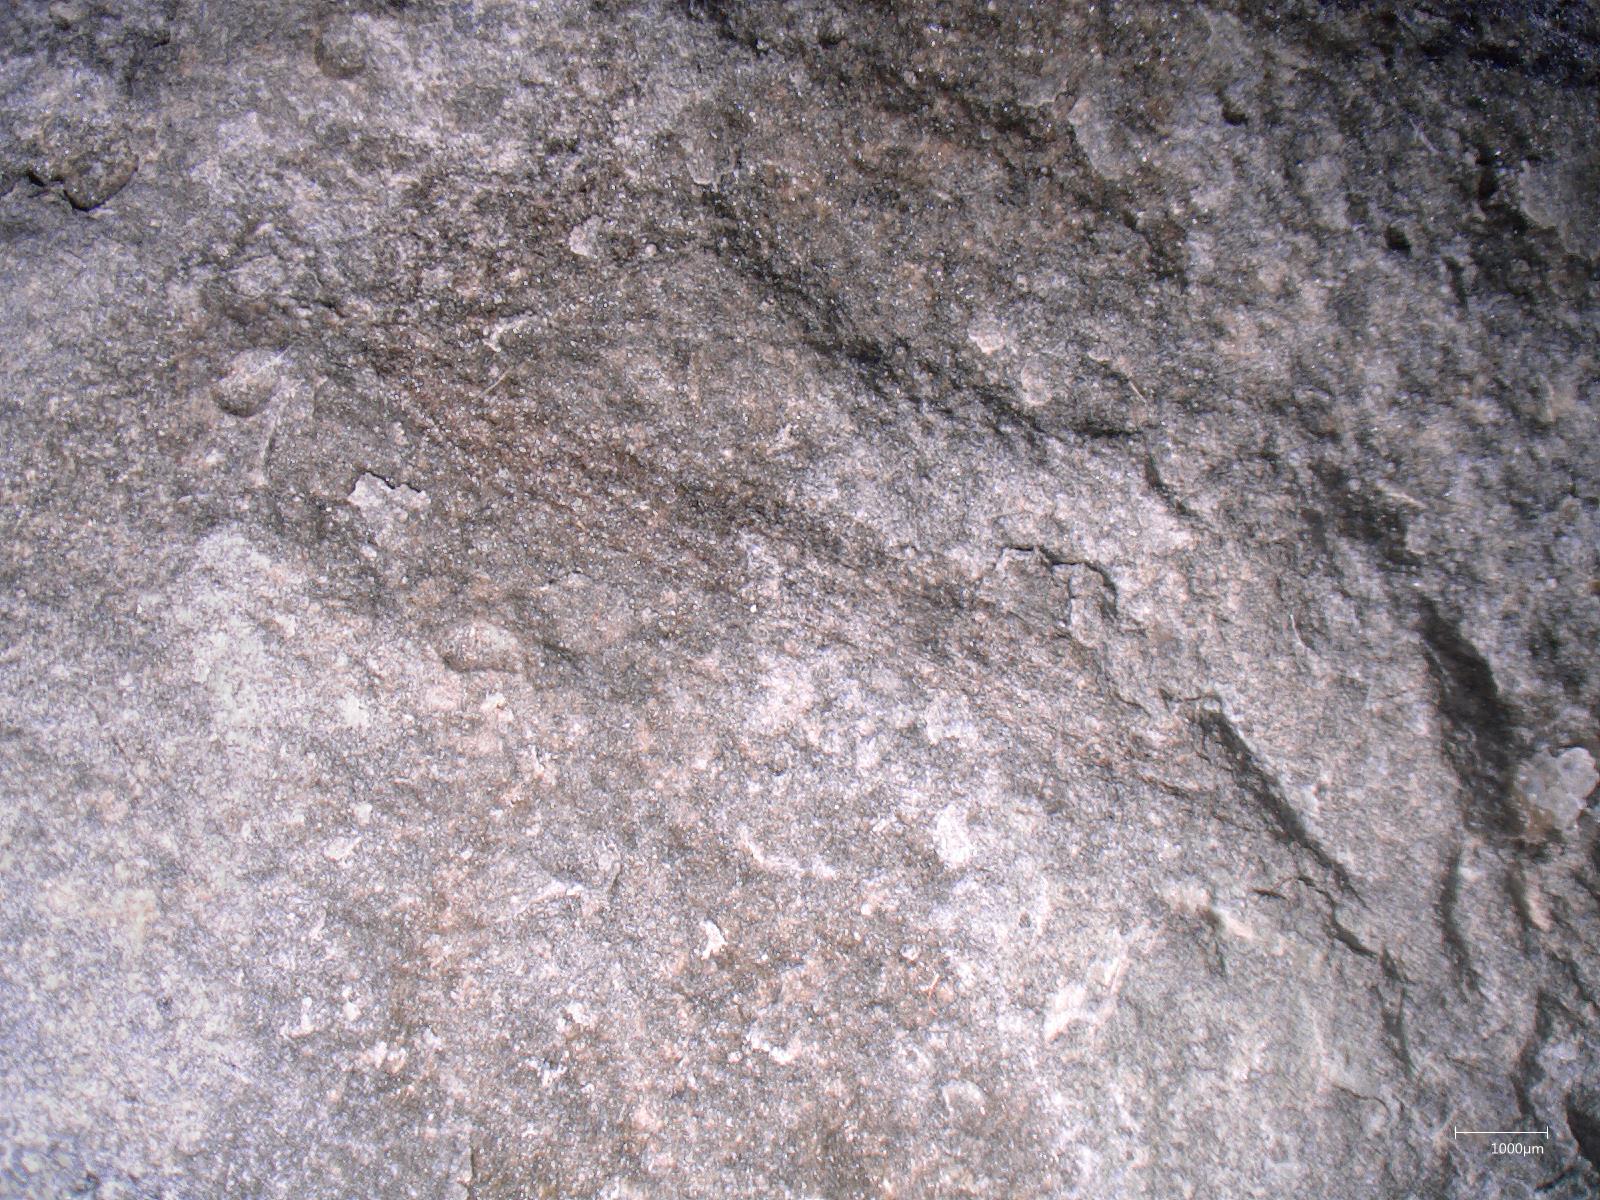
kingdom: Animalia
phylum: Arthropoda
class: Insecta
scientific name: Insecta
